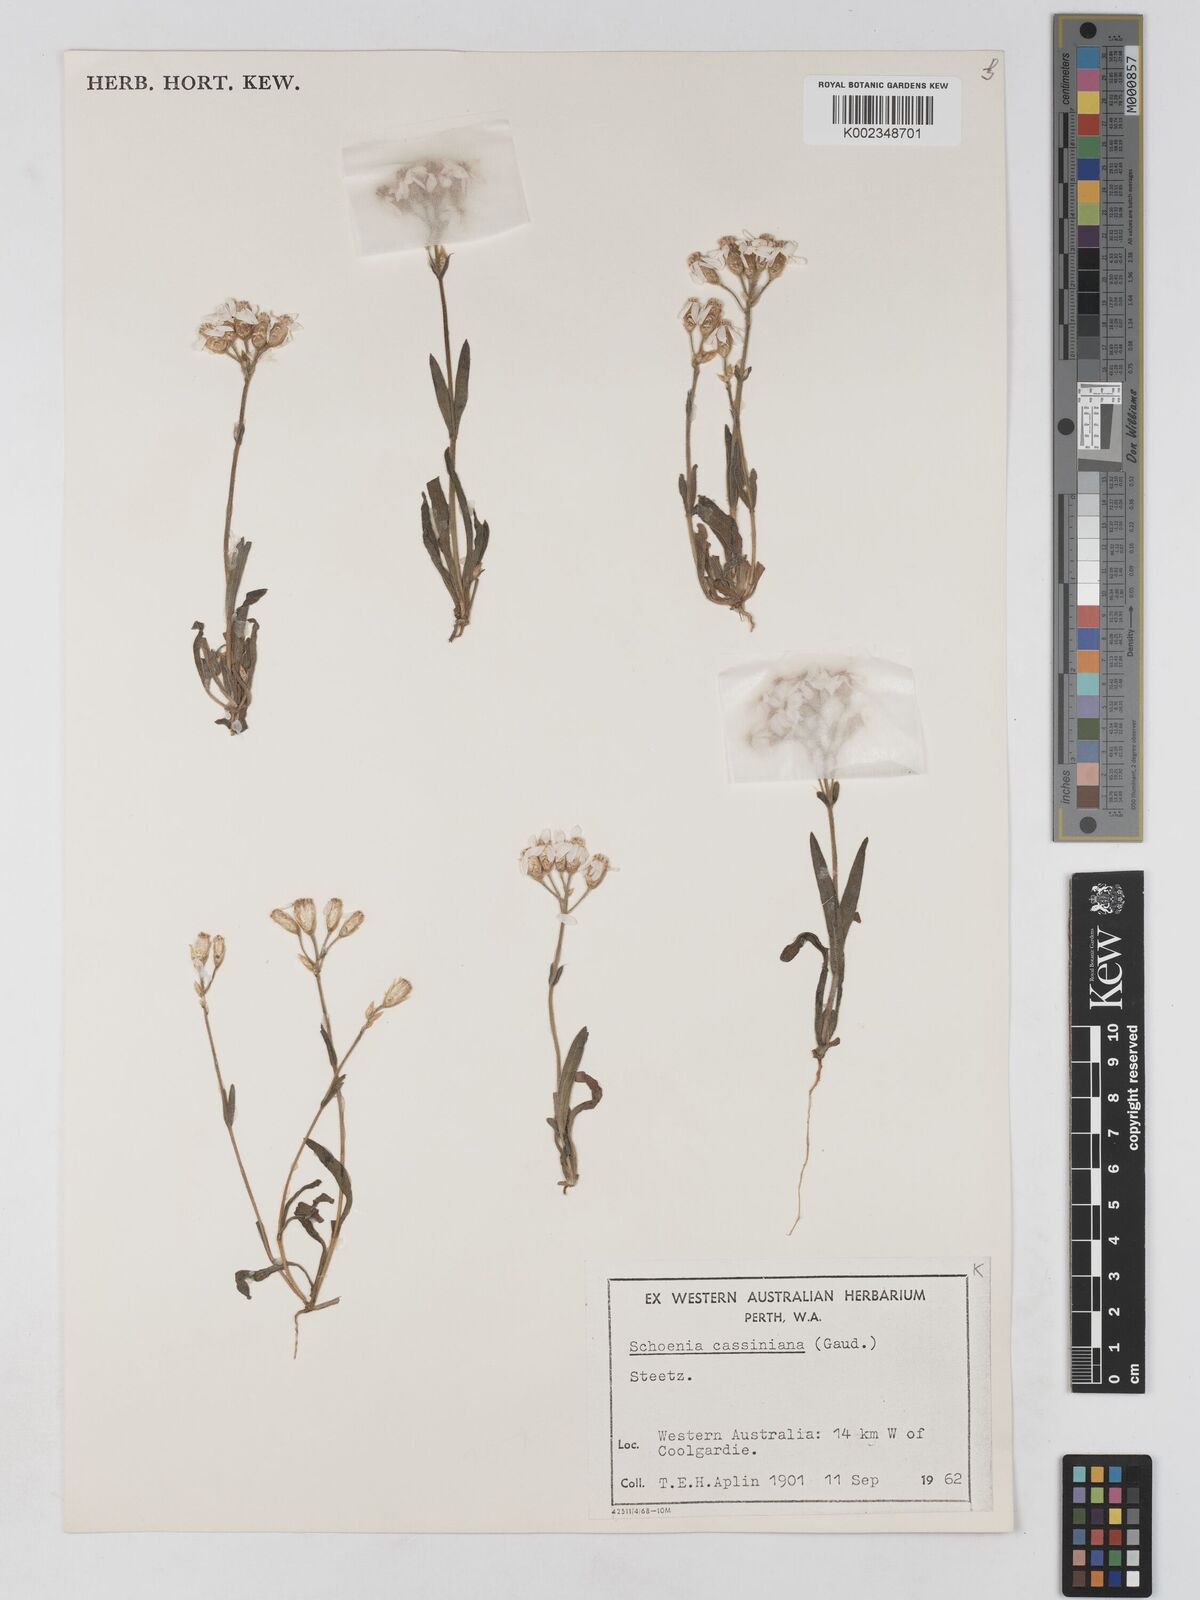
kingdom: Plantae
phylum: Tracheophyta
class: Magnoliopsida
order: Asterales
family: Asteraceae
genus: Schoenia
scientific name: Schoenia cassiniana
